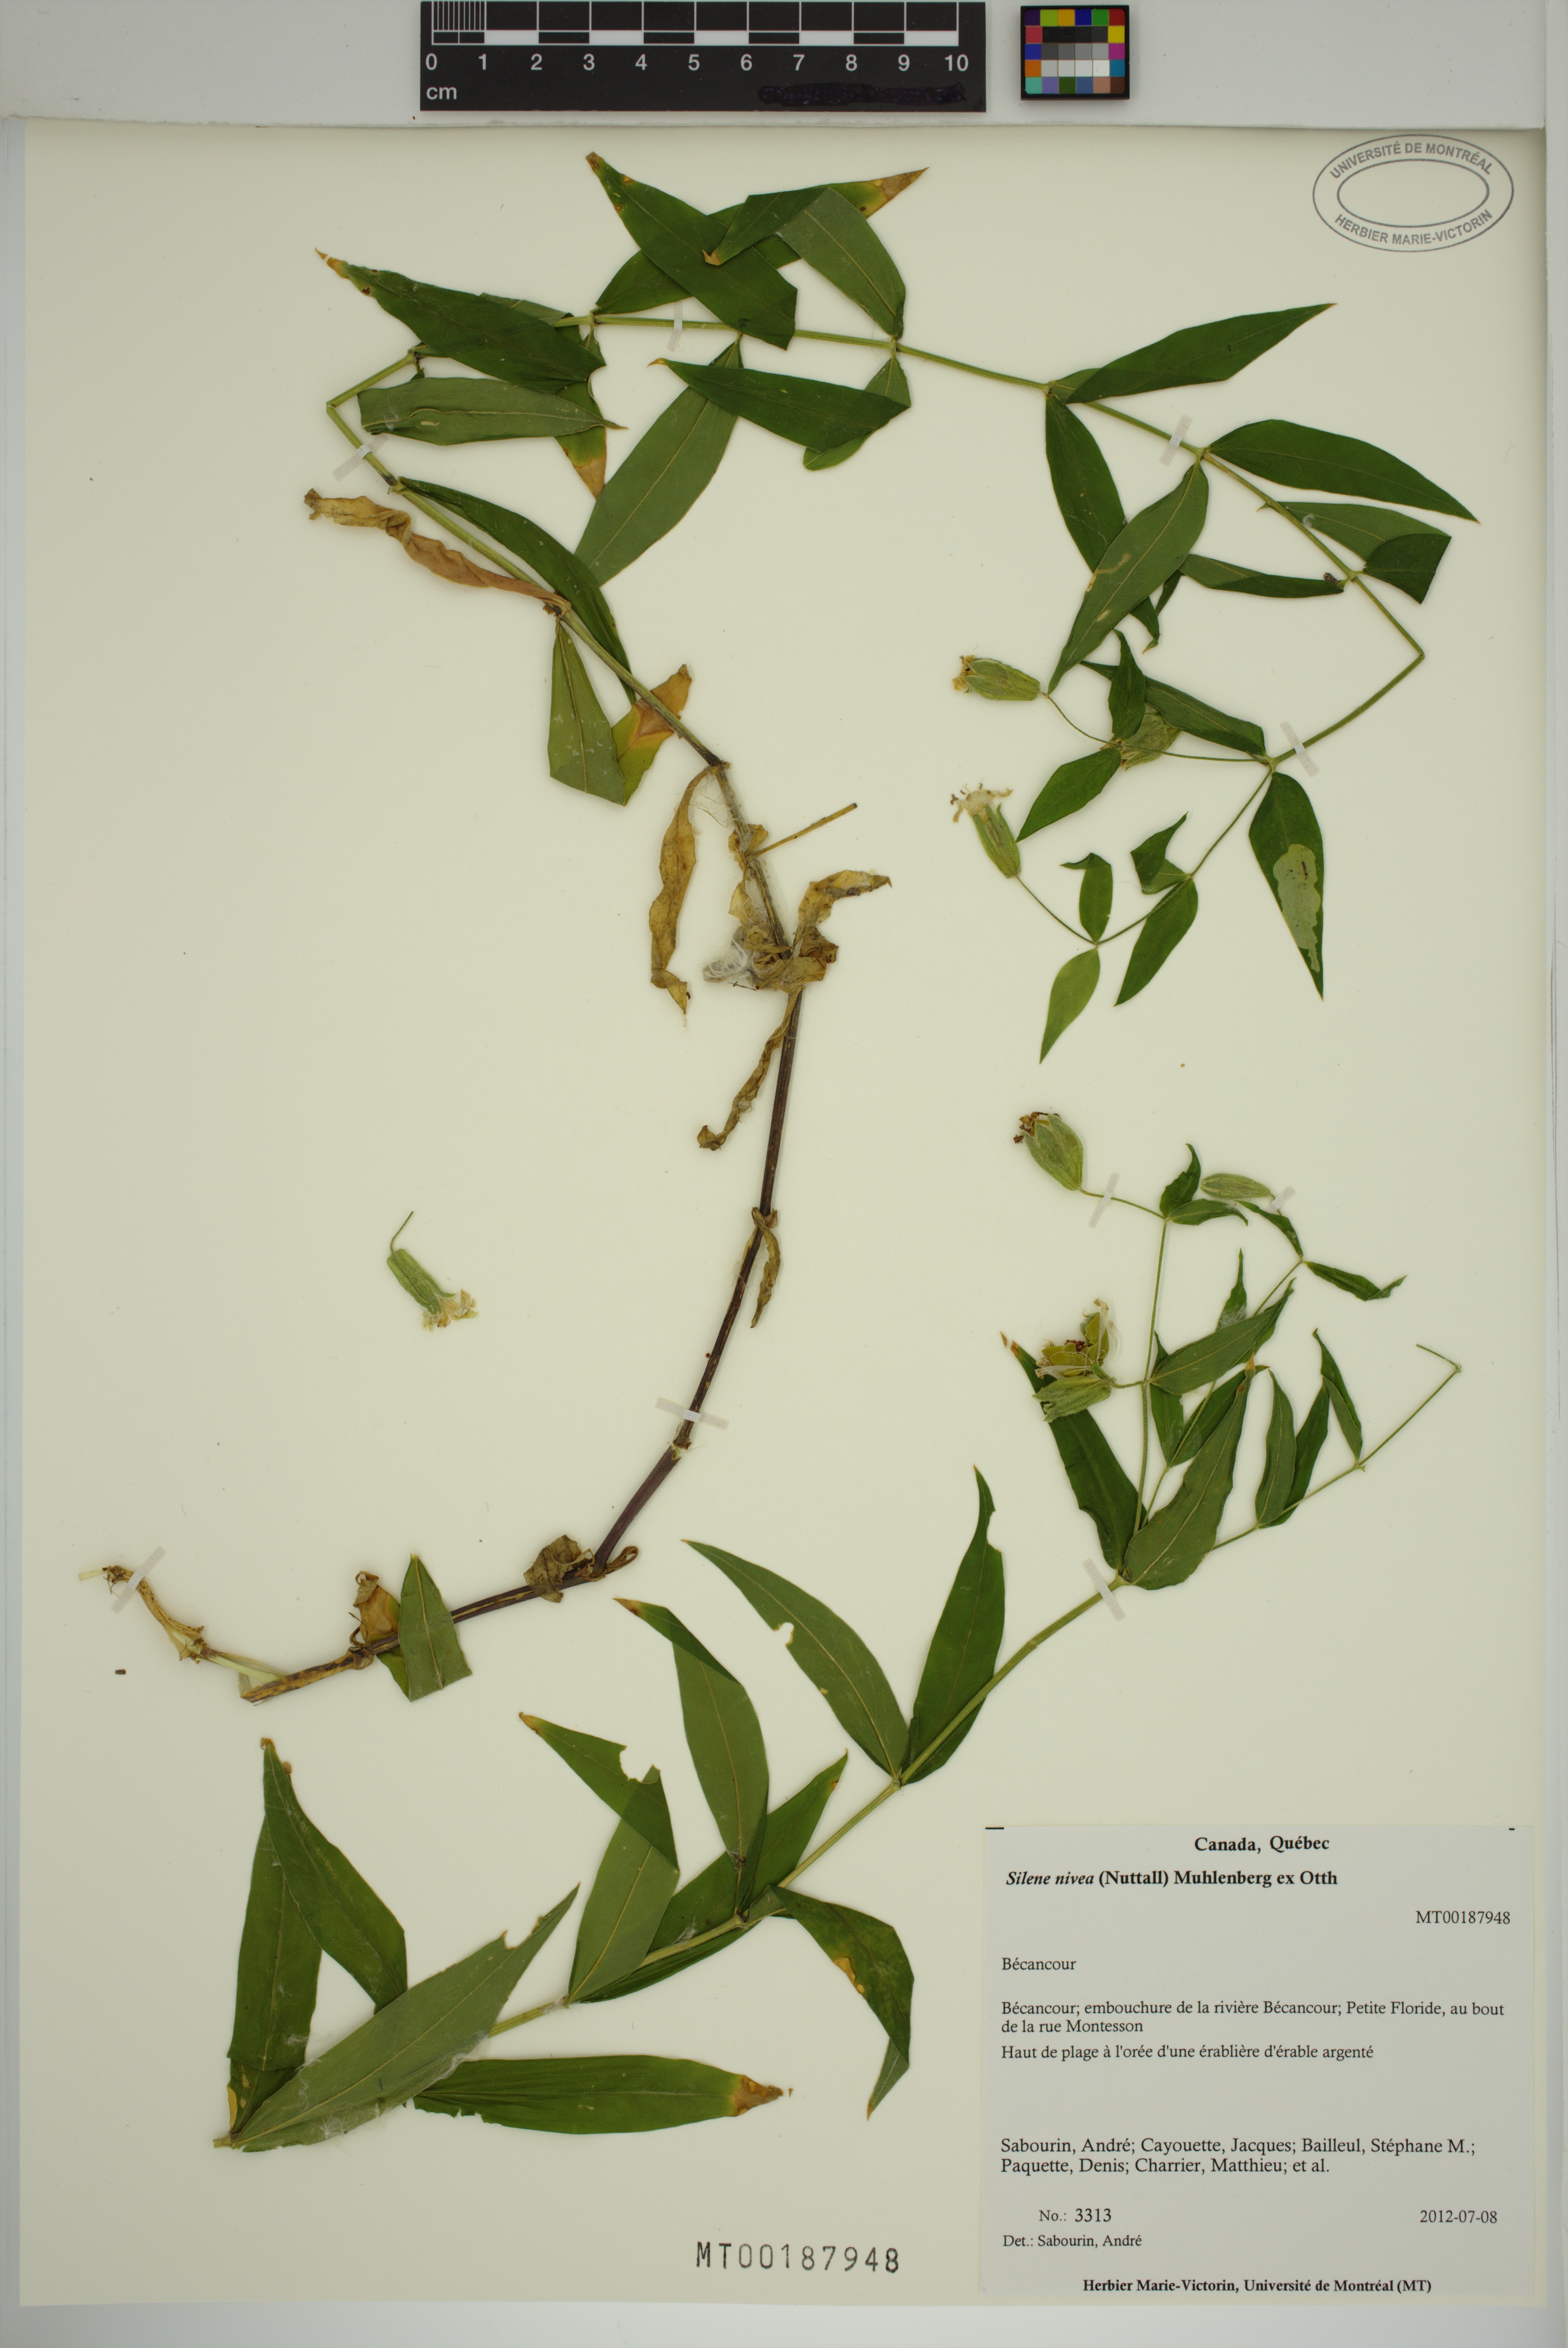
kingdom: Plantae
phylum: Tracheophyta
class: Magnoliopsida
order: Caryophyllales
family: Caryophyllaceae
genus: Silene
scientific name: Silene nivea
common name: Snowy campion
